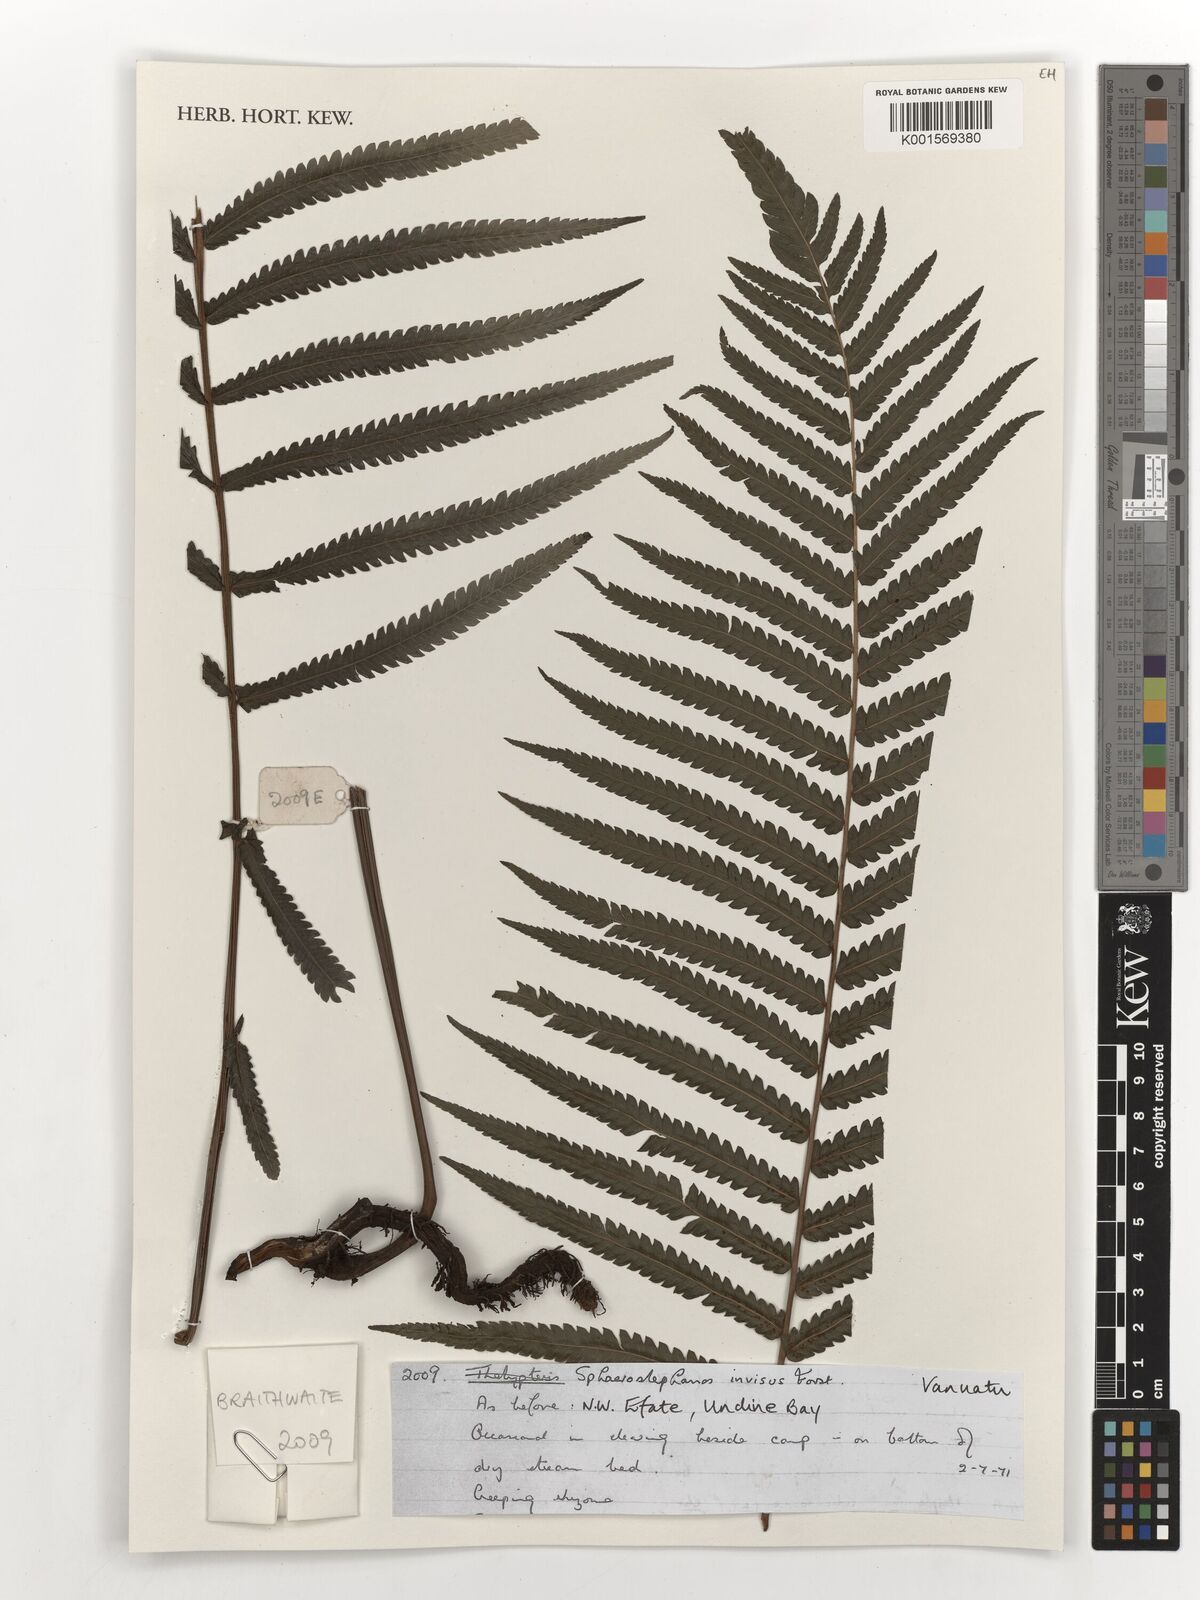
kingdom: Plantae
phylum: Tracheophyta
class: Polypodiopsida
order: Polypodiales
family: Thelypteridaceae
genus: Strophocaulon
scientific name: Strophocaulon invisum
